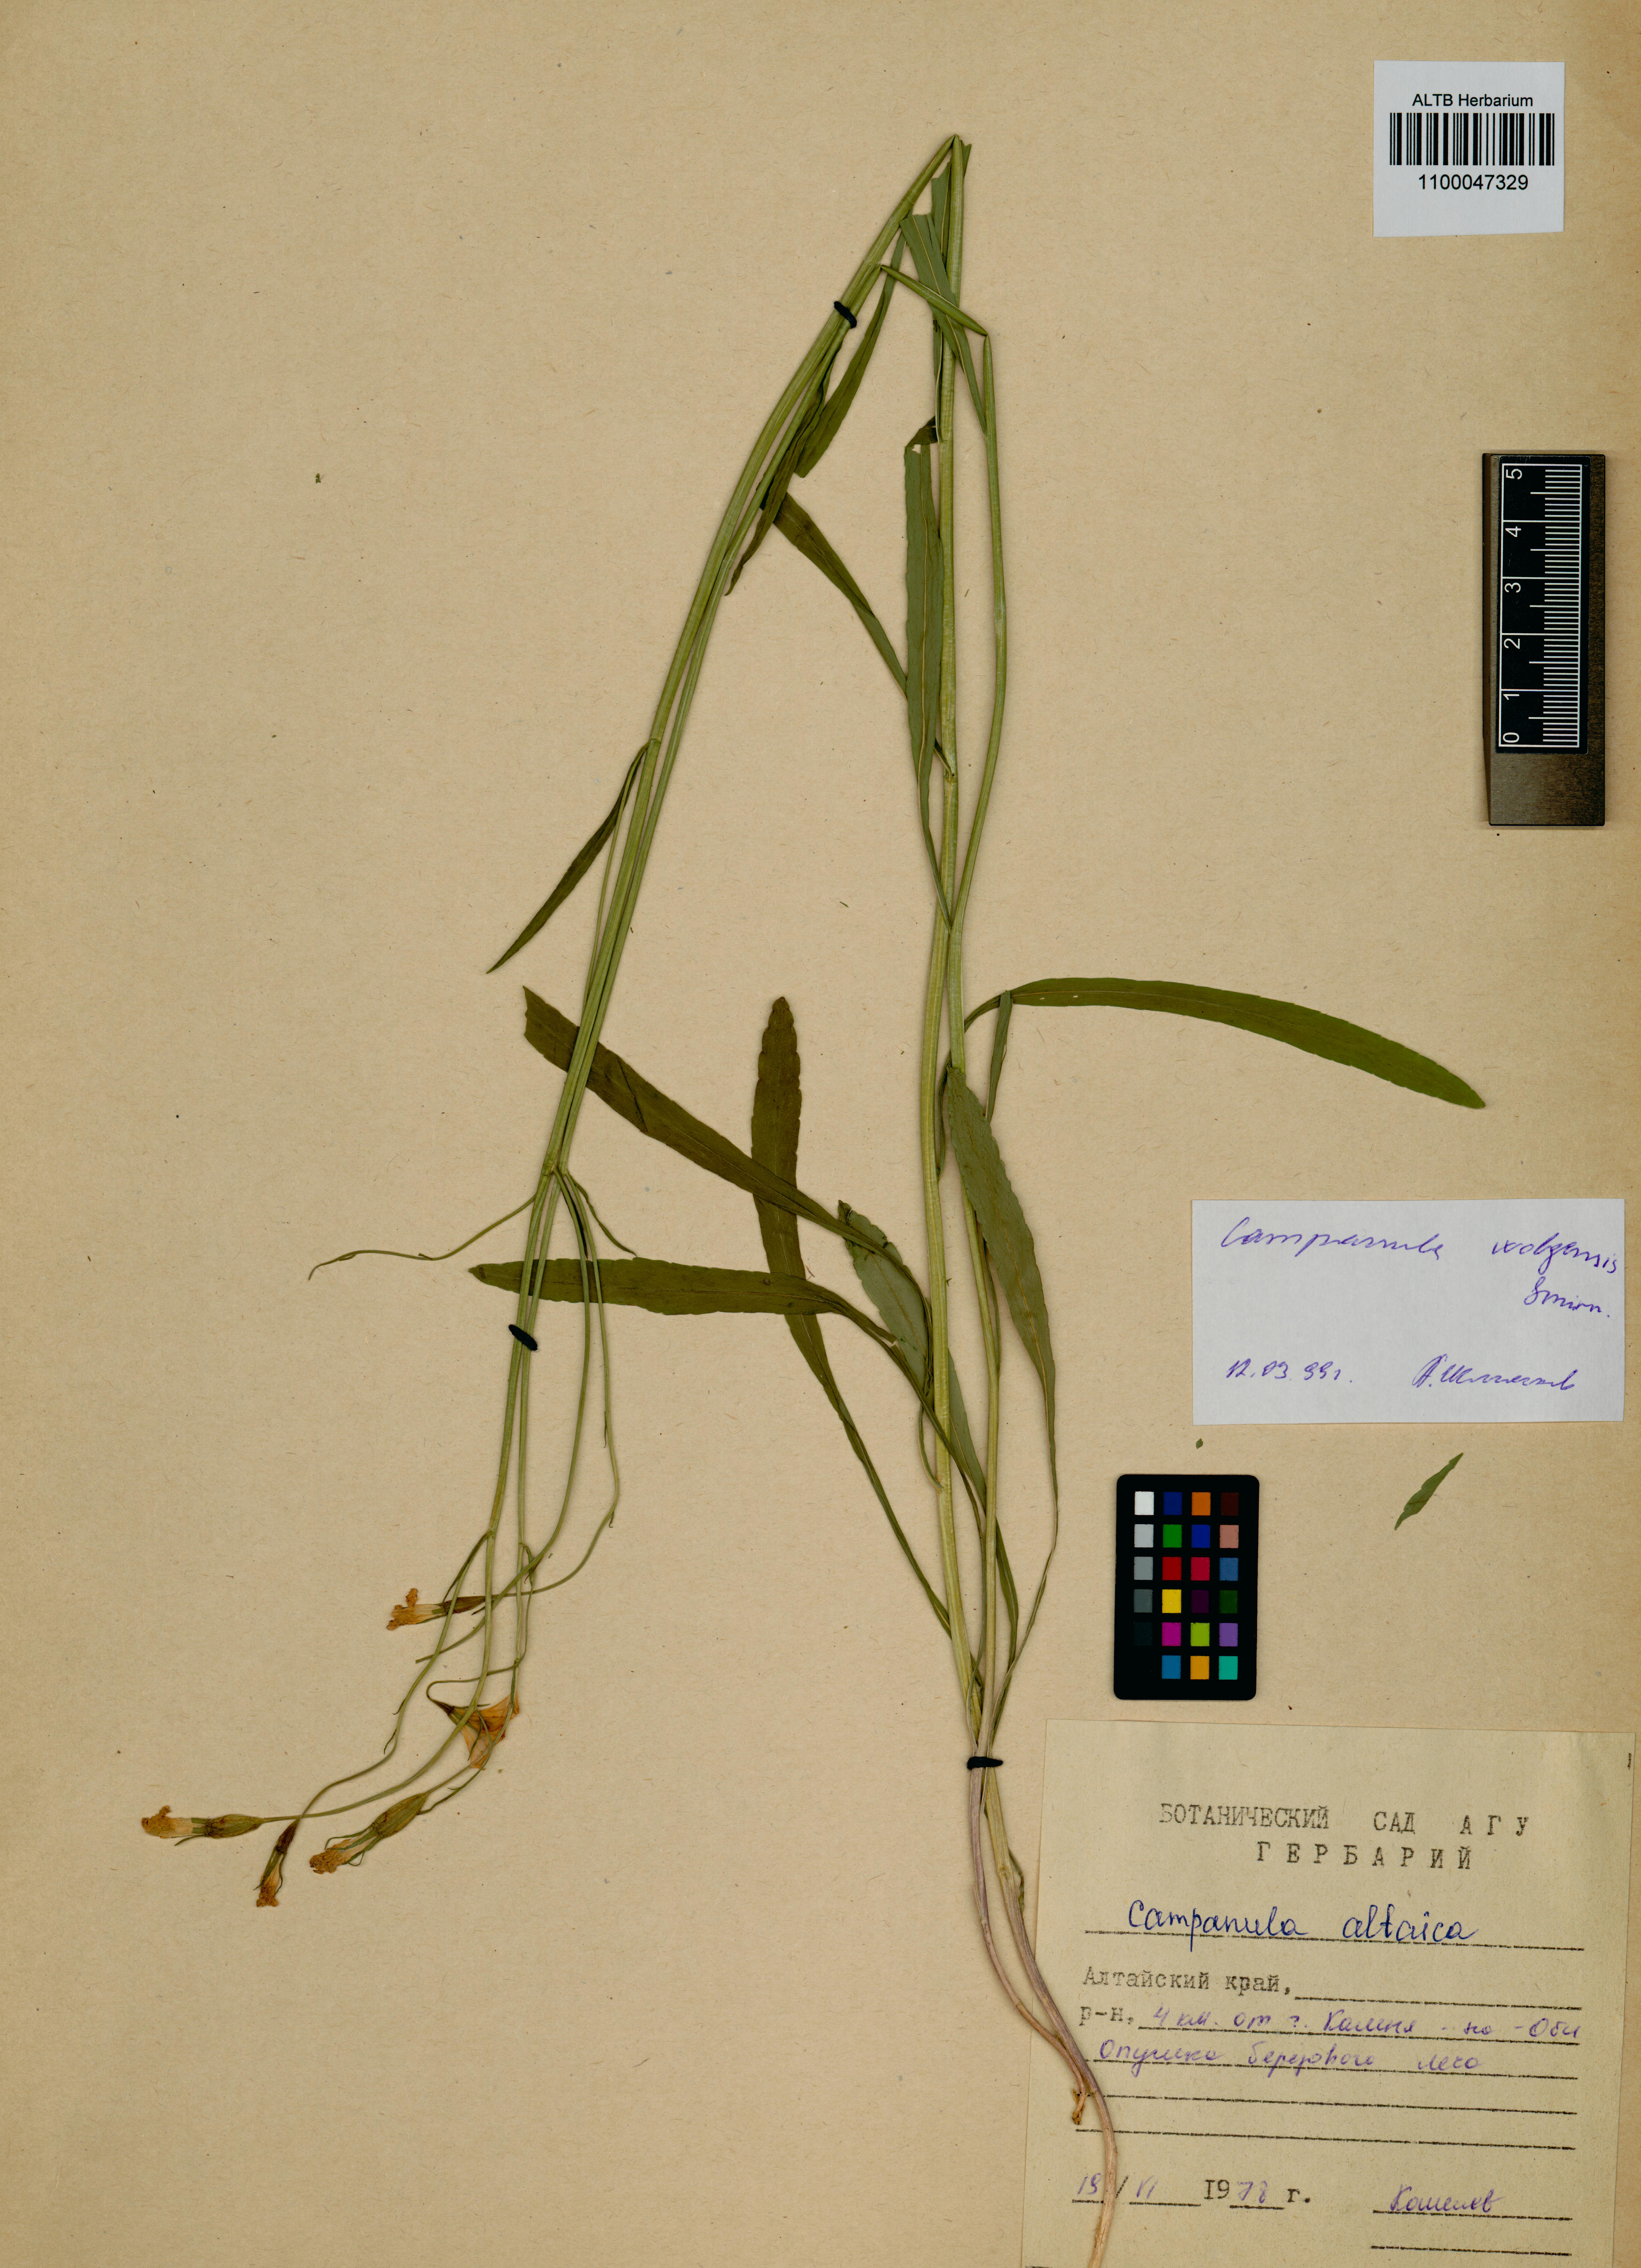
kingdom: Plantae
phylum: Tracheophyta
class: Magnoliopsida
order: Asterales
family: Campanulaceae
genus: Campanula
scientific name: Campanula stevenii
